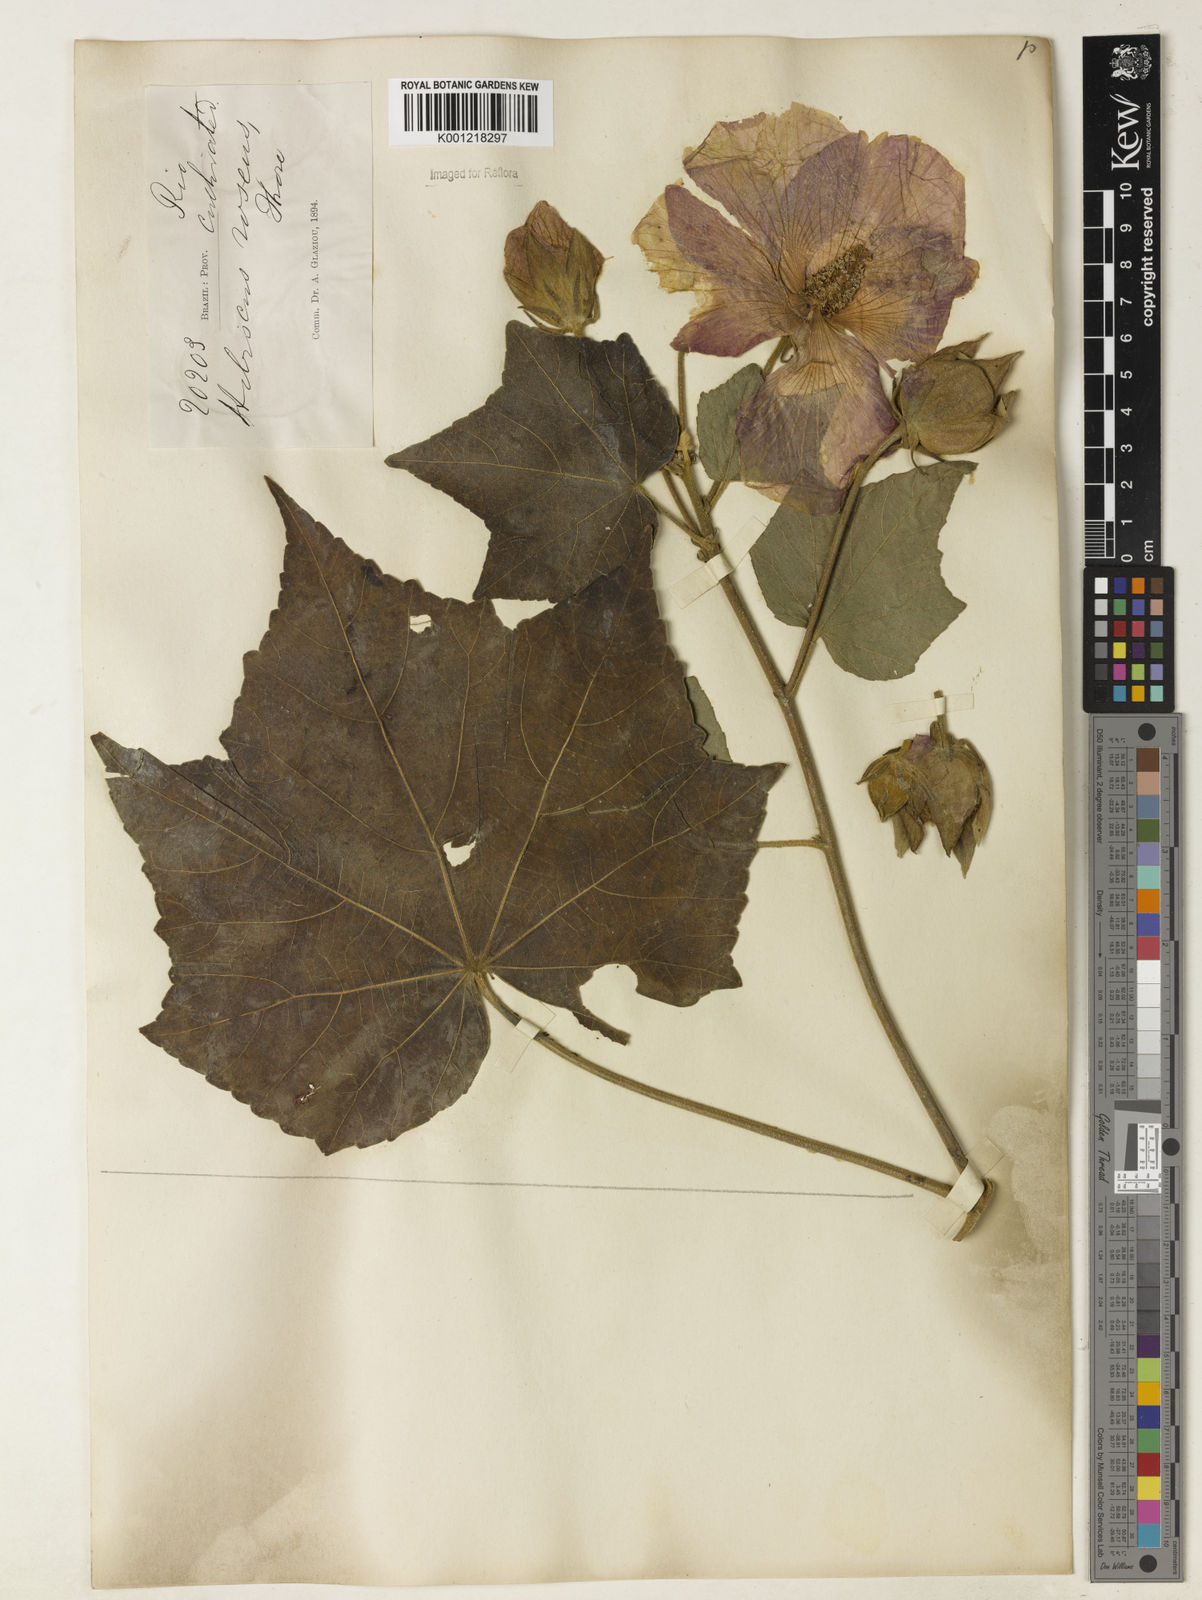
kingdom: Plantae
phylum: Tracheophyta
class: Magnoliopsida
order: Malvales
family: Malvaceae
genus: Hibiscus
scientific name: Hibiscus mutabilis
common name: Dixie rosemallow
